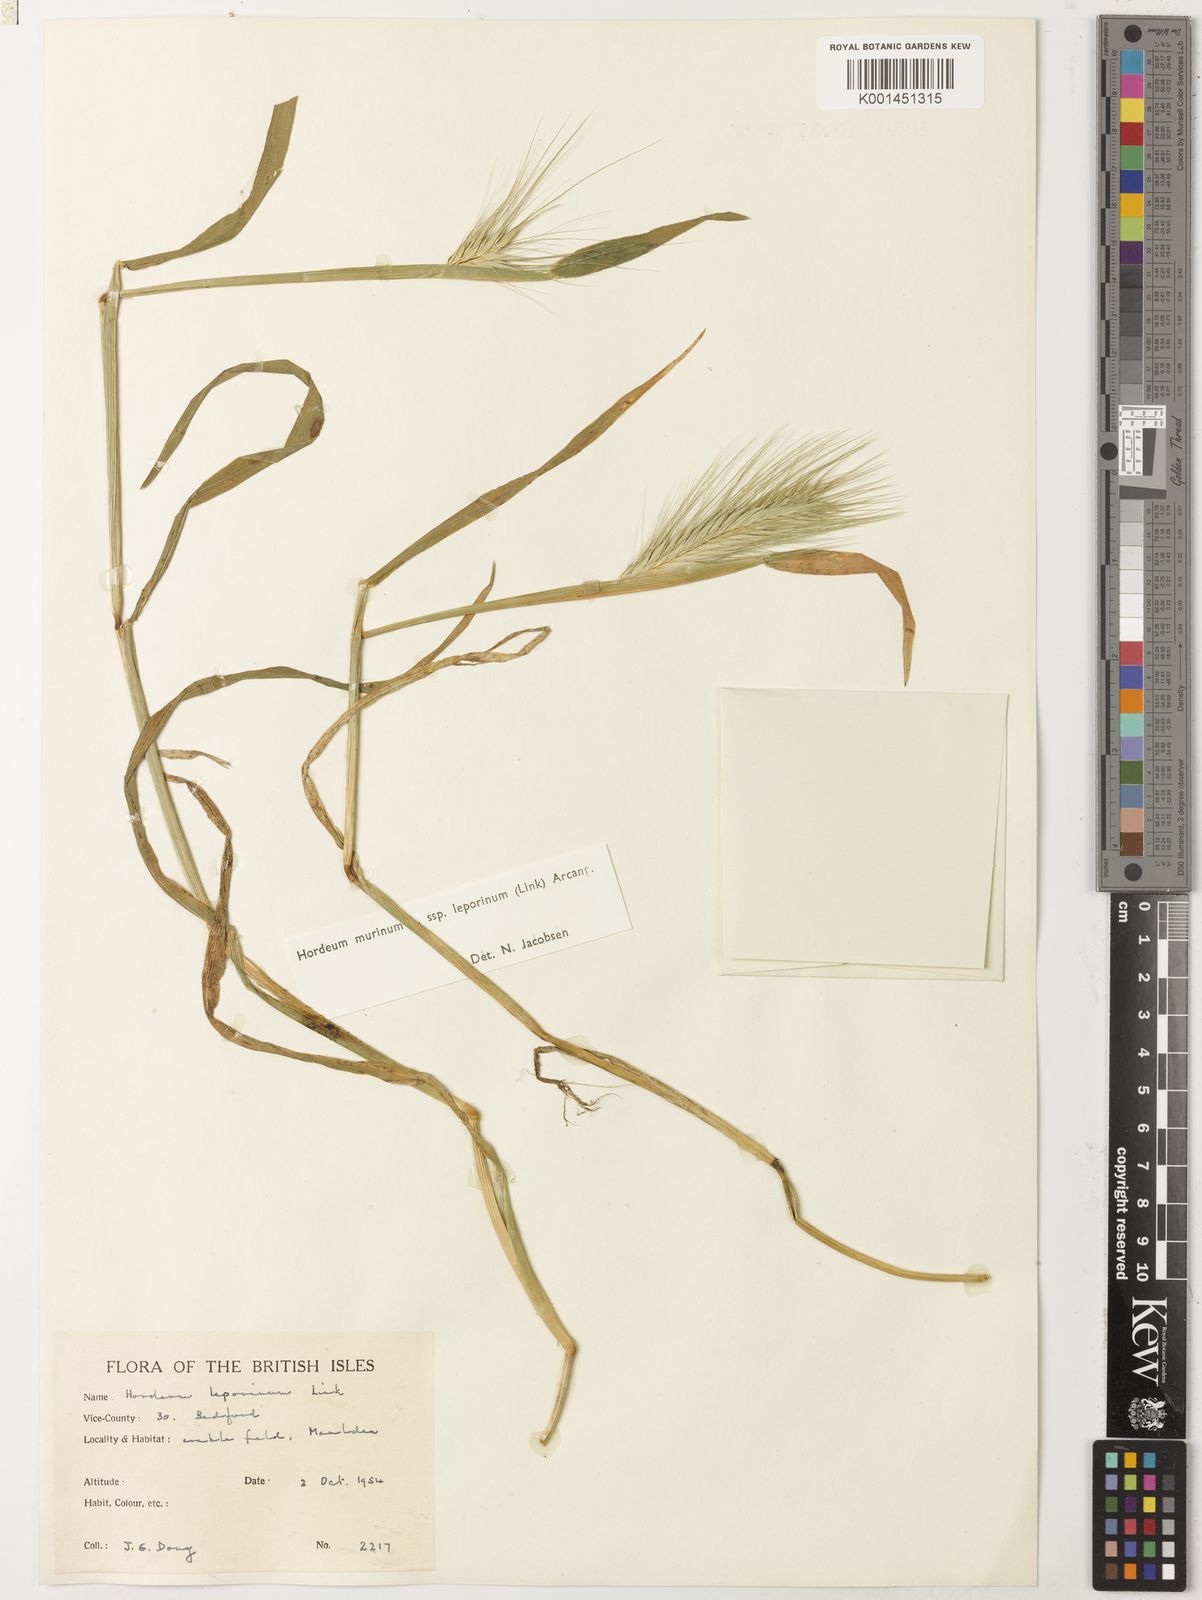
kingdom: Plantae
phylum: Tracheophyta
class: Liliopsida
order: Poales
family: Poaceae
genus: Hordeum
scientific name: Hordeum murinum
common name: Wall barley
